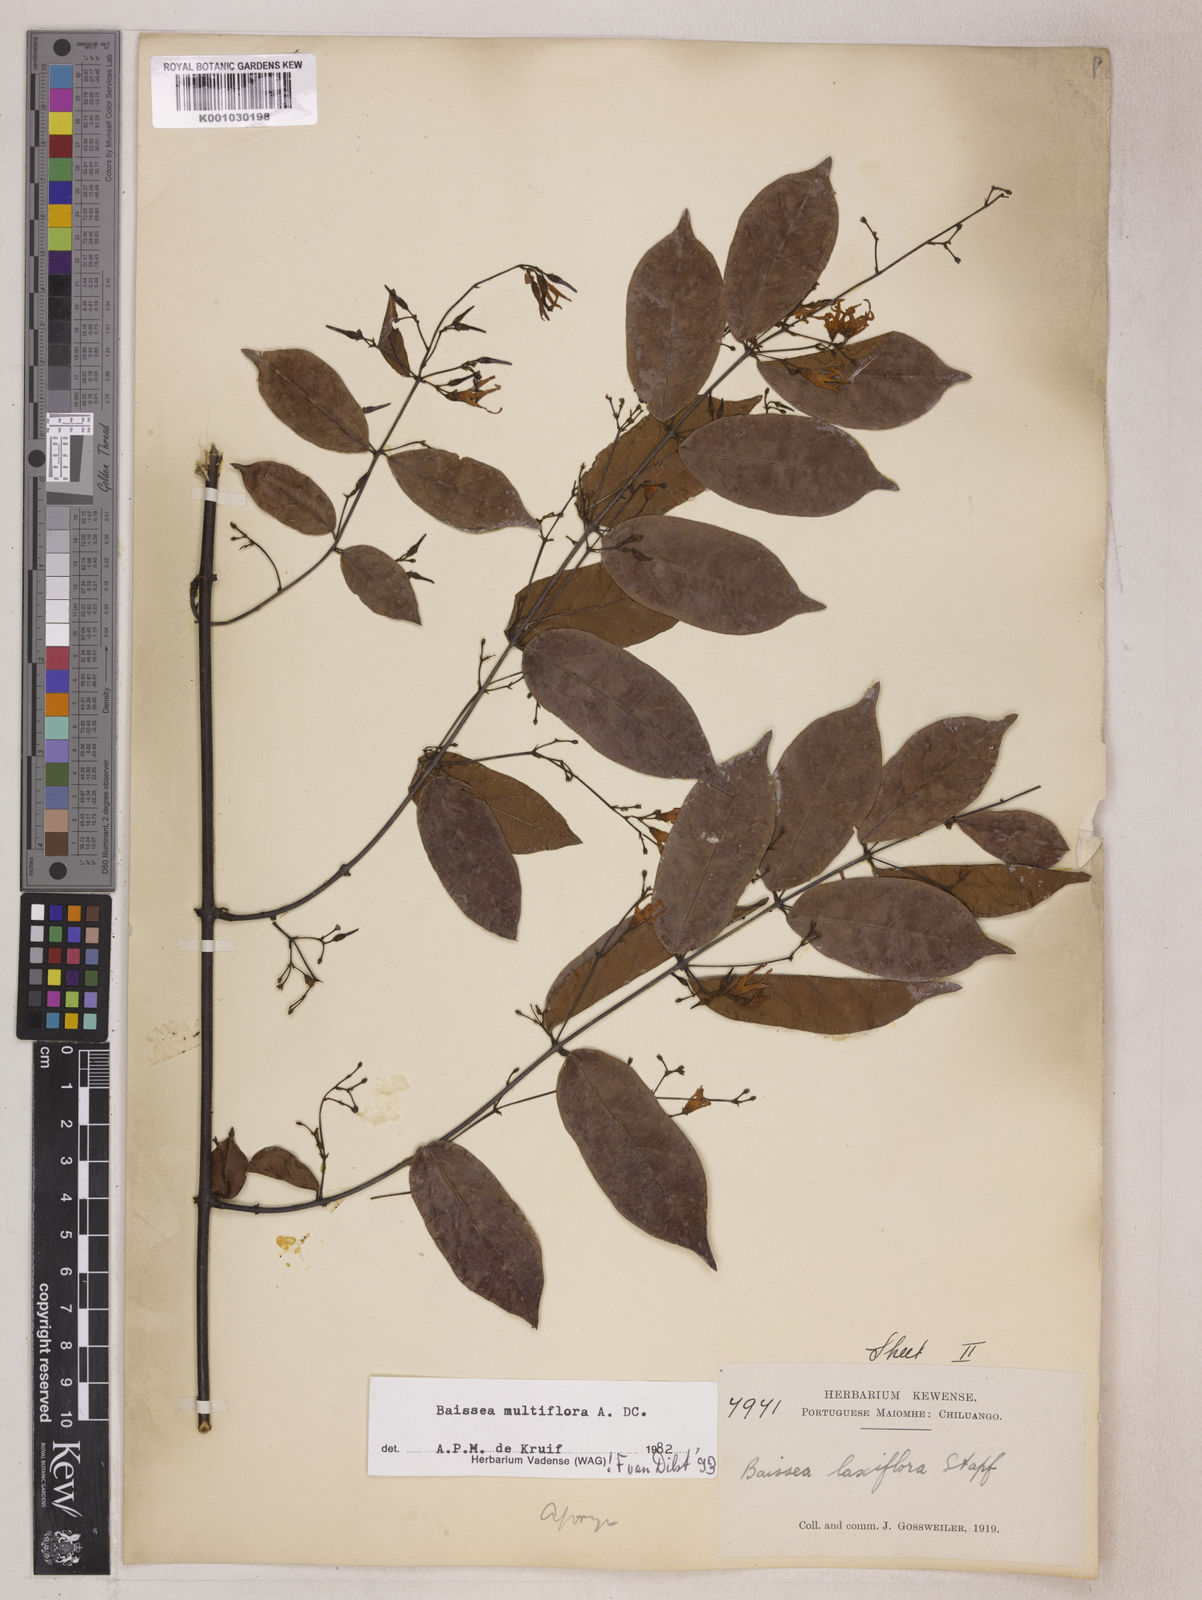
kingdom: Plantae
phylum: Tracheophyta
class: Magnoliopsida
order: Gentianales
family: Apocynaceae
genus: Baissea
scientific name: Baissea multiflora
